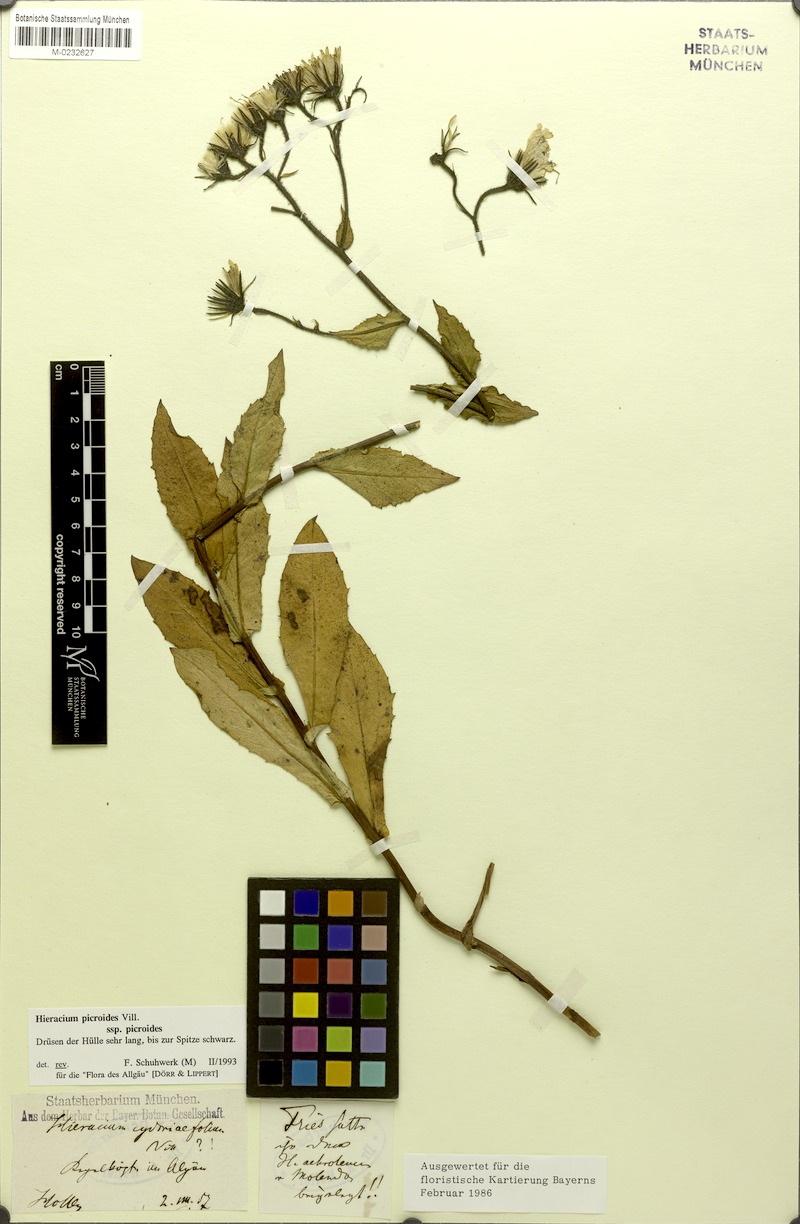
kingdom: Plantae
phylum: Tracheophyta
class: Magnoliopsida
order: Asterales
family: Asteraceae
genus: Hieracium
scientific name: Hieracium picroides
